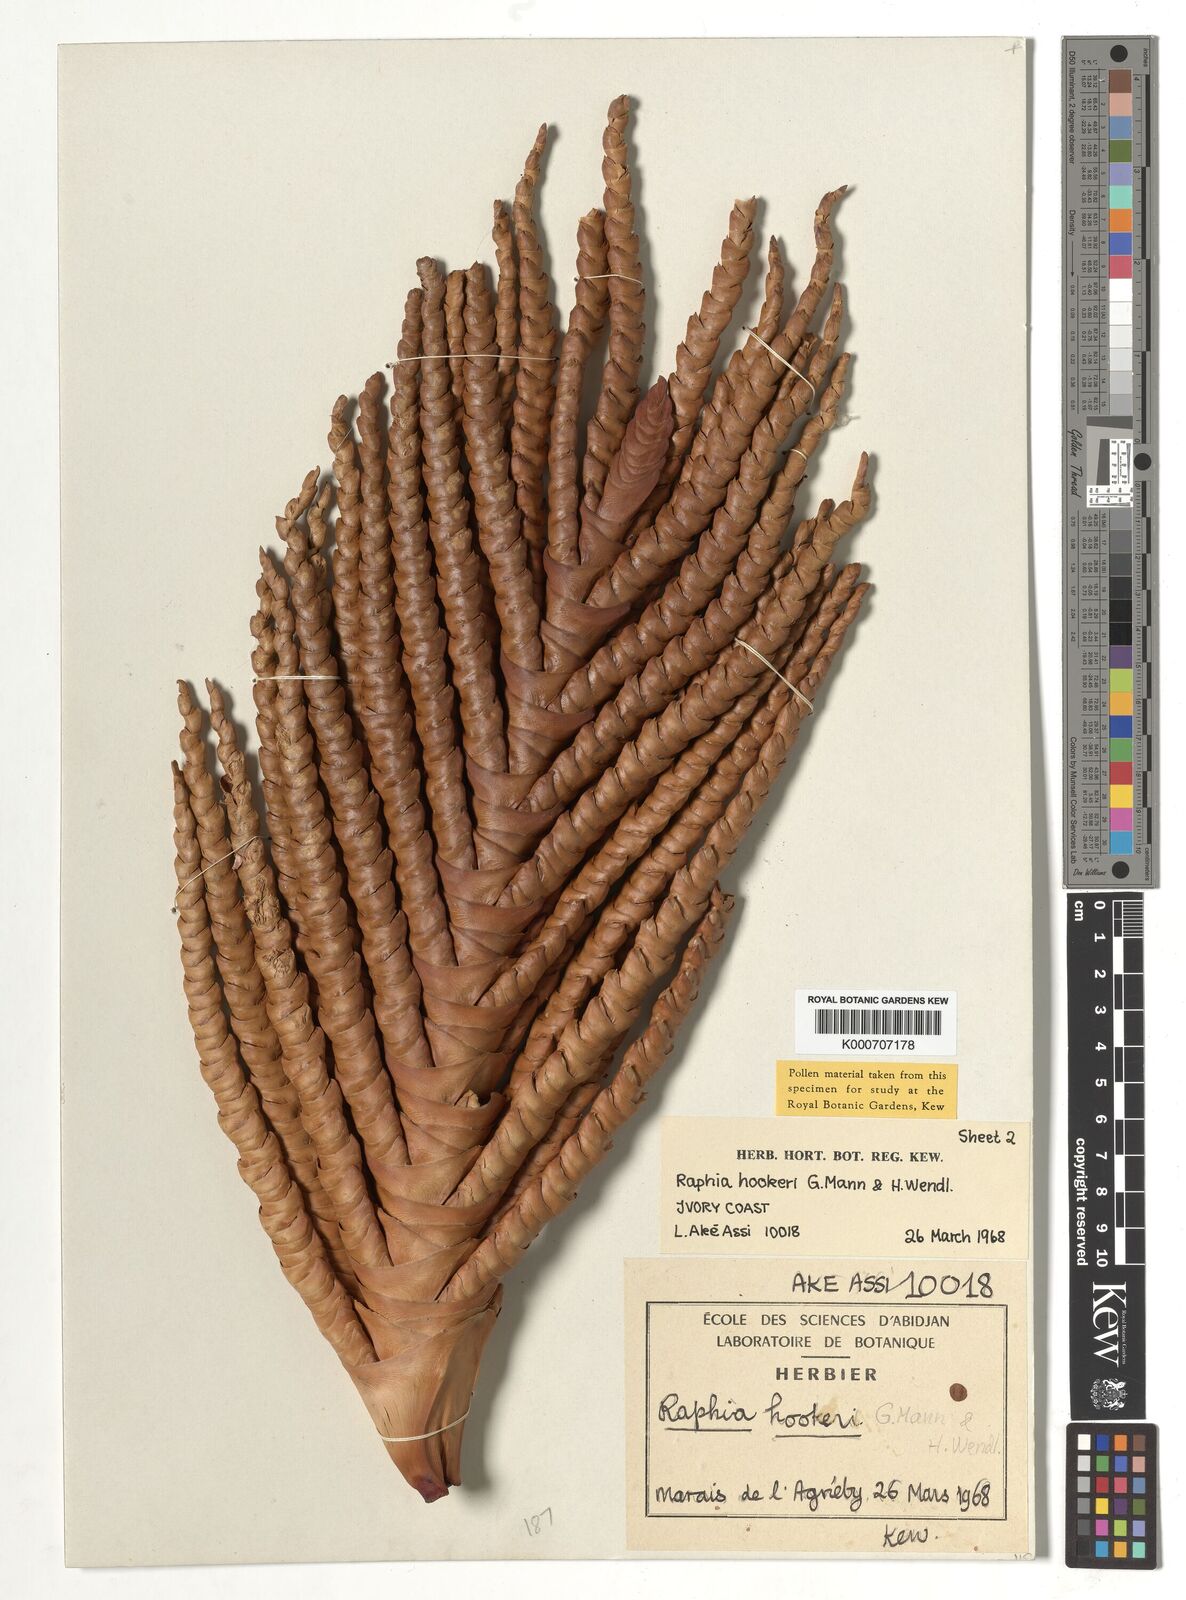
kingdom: Plantae
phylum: Tracheophyta
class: Liliopsida
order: Arecales
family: Arecaceae
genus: Raphia
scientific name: Raphia hookeri
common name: Wine palm
